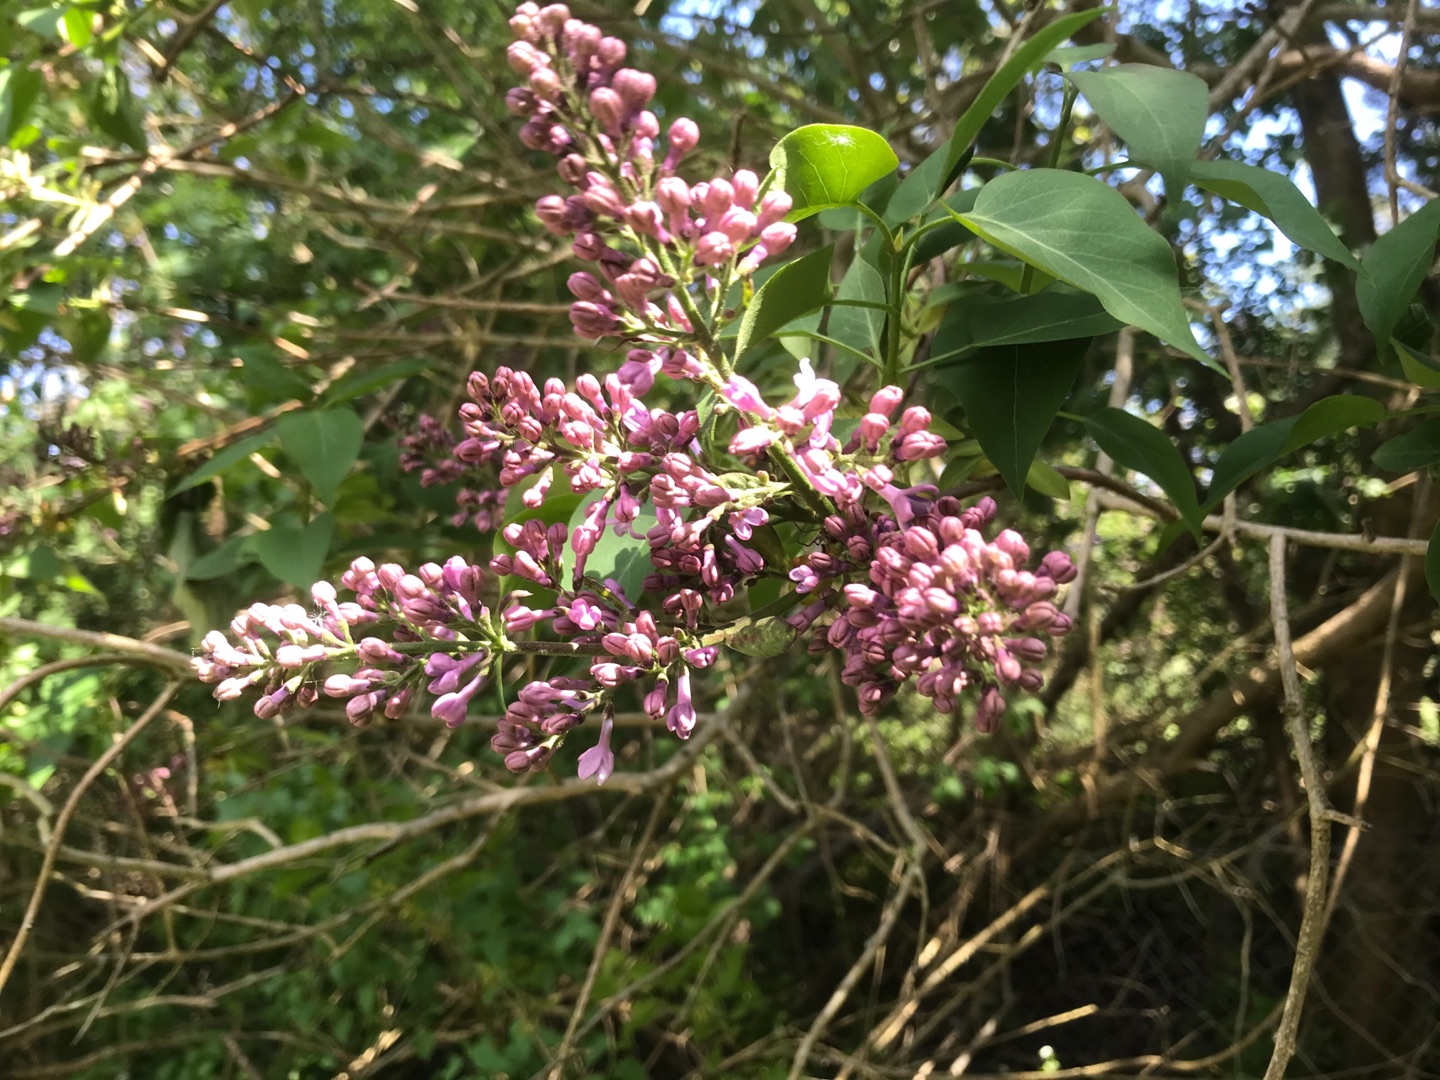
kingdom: Plantae
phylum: Tracheophyta
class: Magnoliopsida
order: Lamiales
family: Oleaceae
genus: Syringa
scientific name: Syringa vulgaris
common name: Syren
